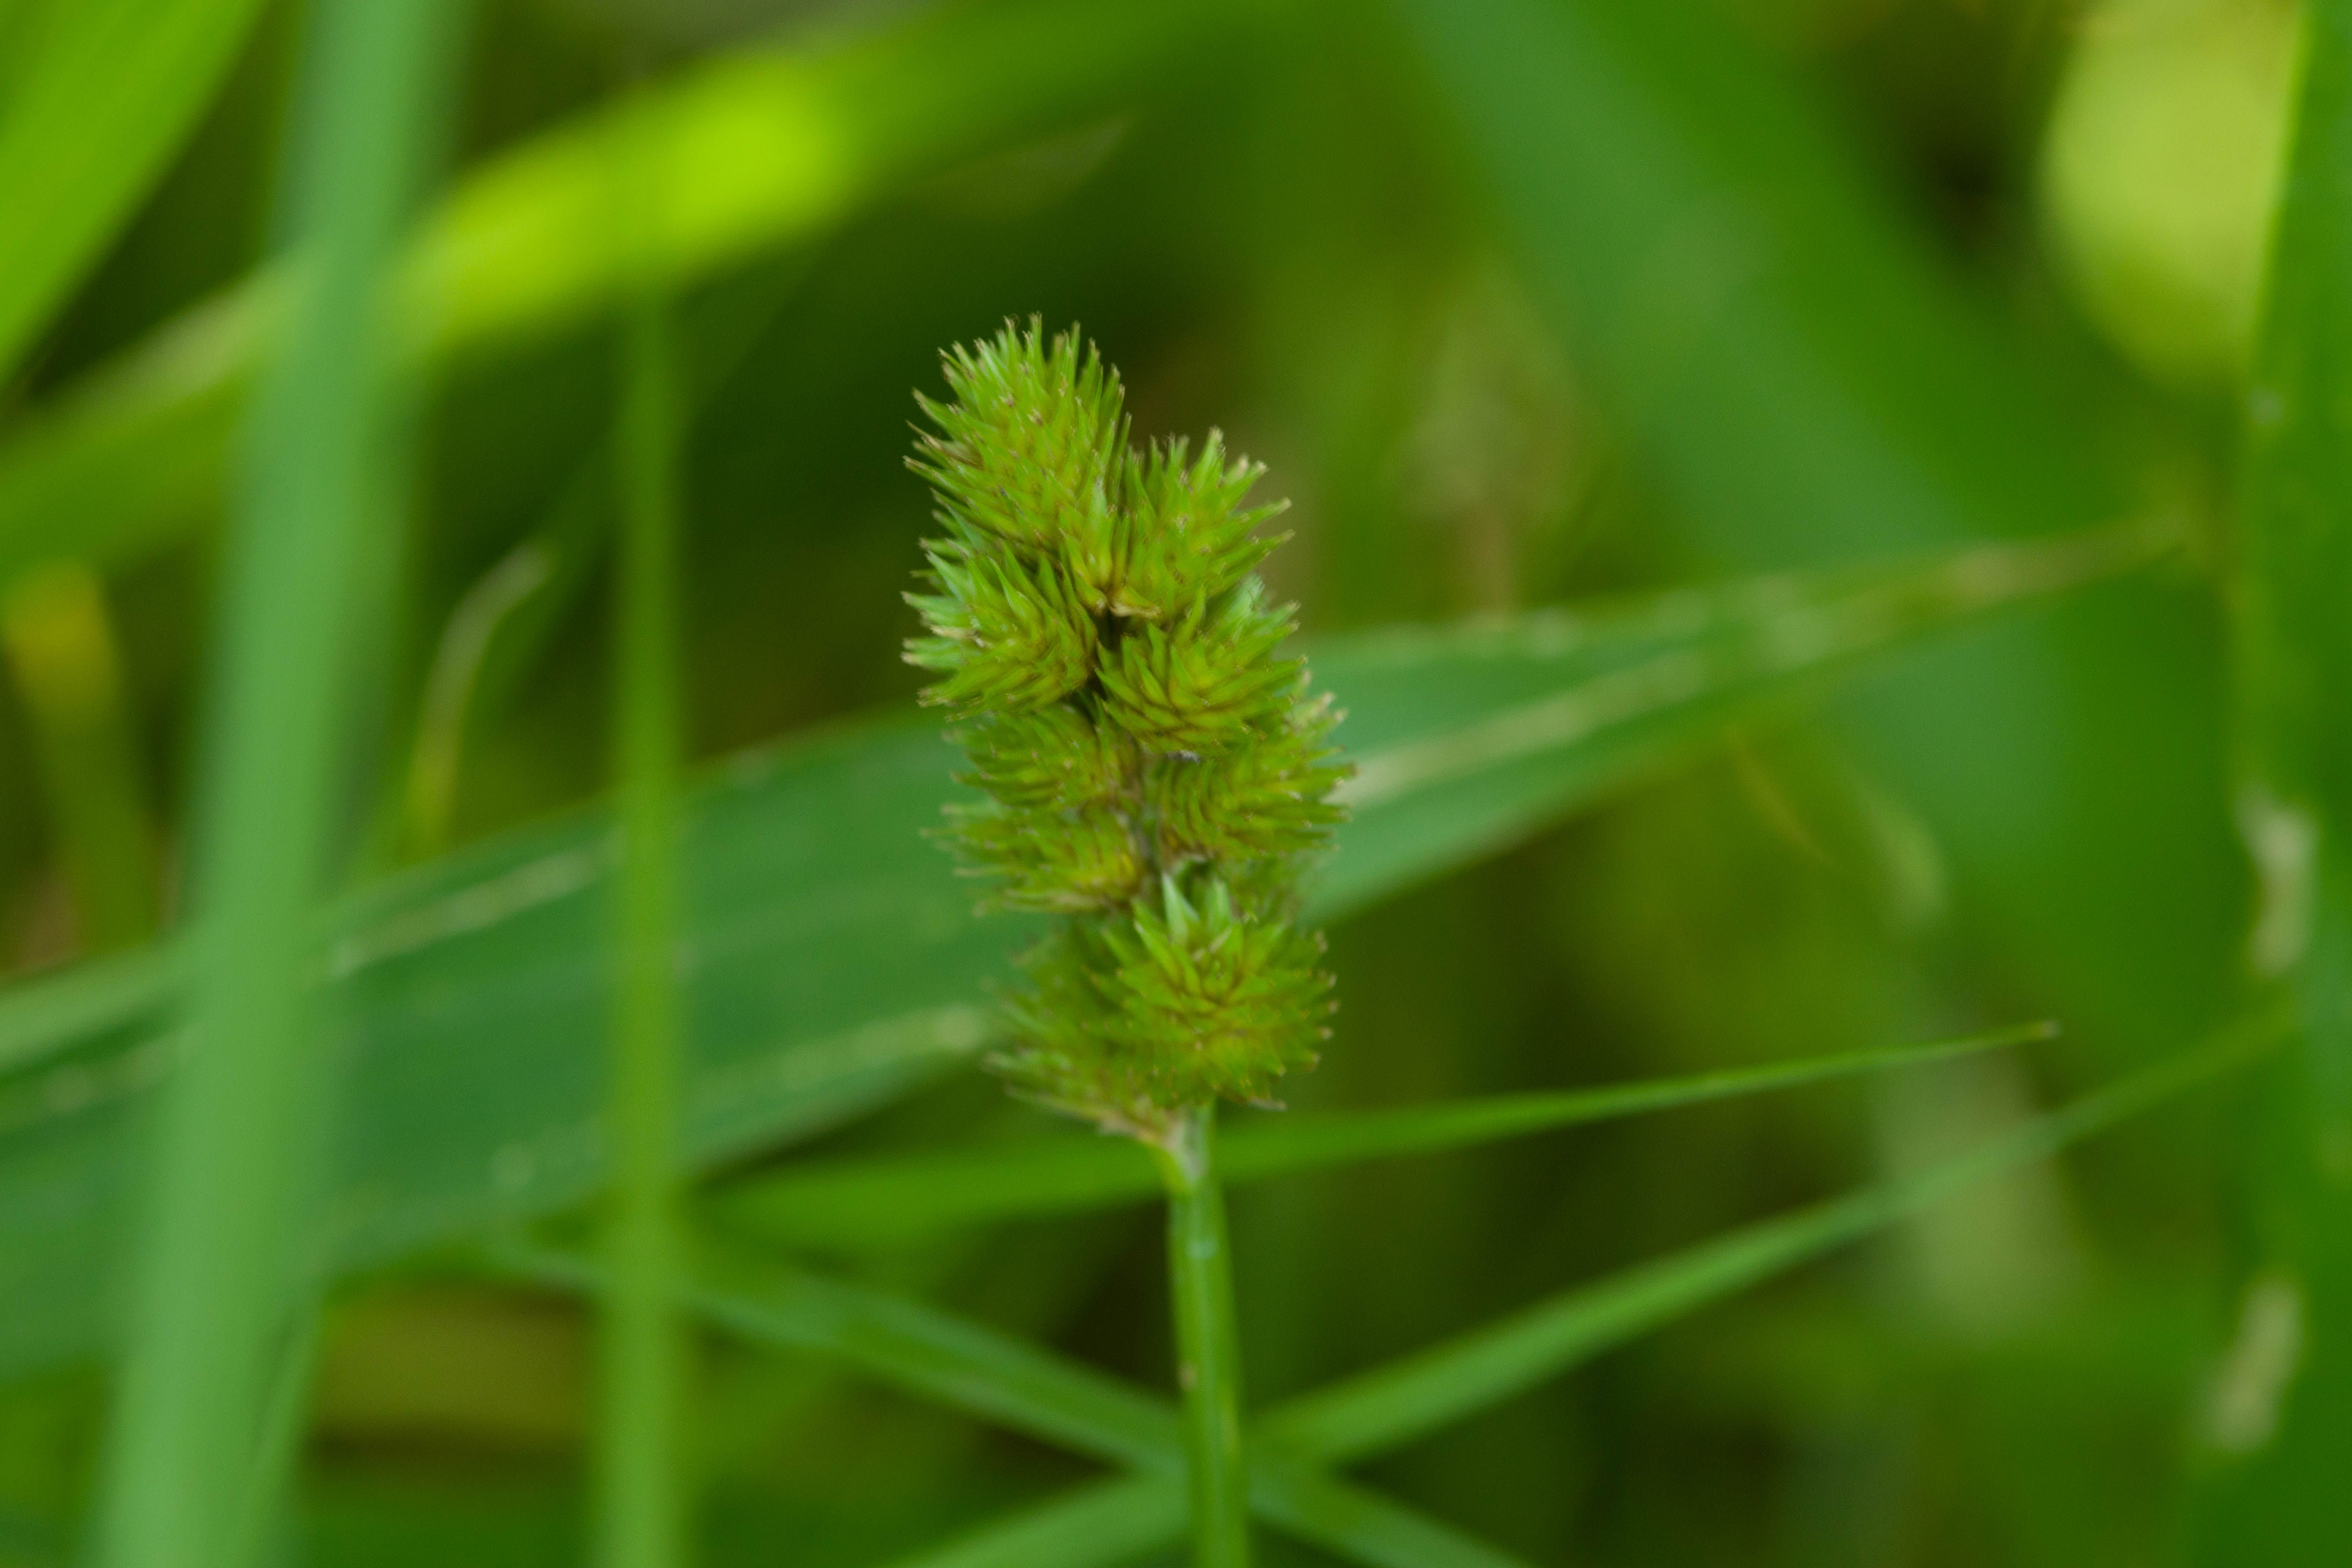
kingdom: Plantae
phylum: Tracheophyta
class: Liliopsida
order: Poales
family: Cyperaceae
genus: Carex
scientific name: Carex tribuloides
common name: Blunt broom sedge
